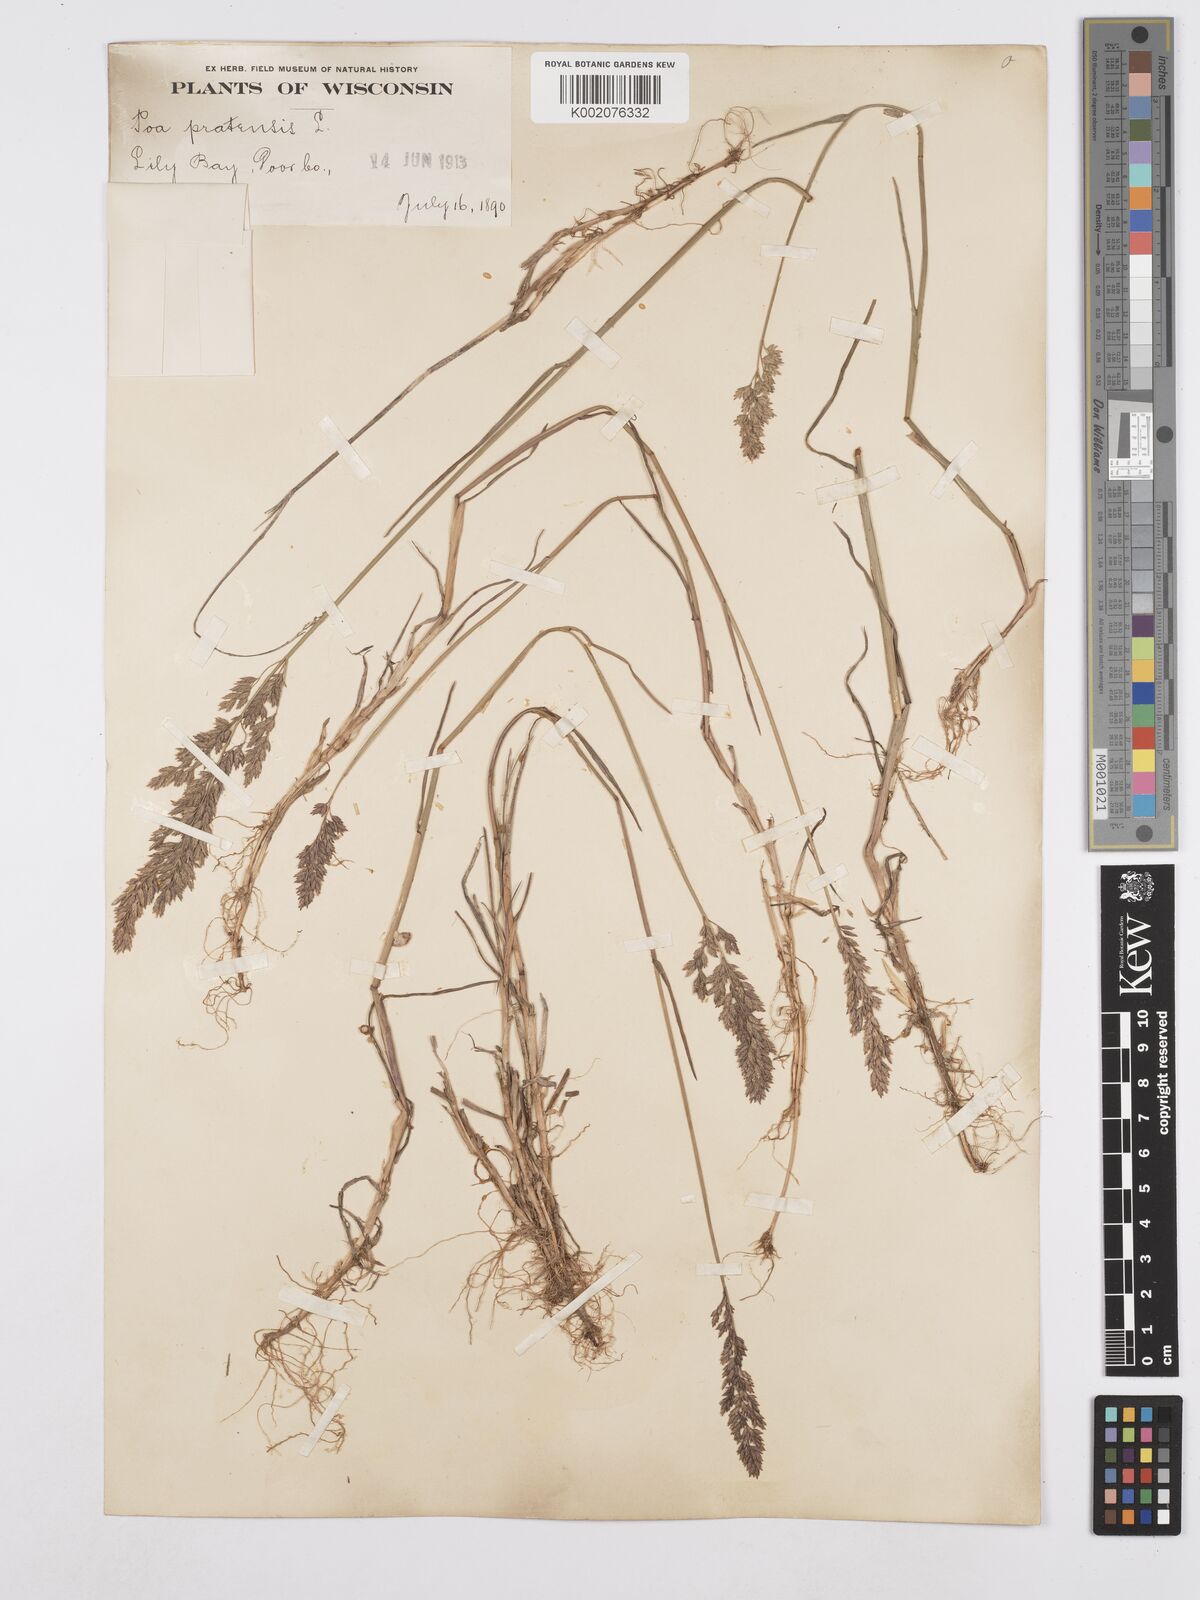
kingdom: Plantae
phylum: Tracheophyta
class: Liliopsida
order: Poales
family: Poaceae
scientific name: Poaceae
